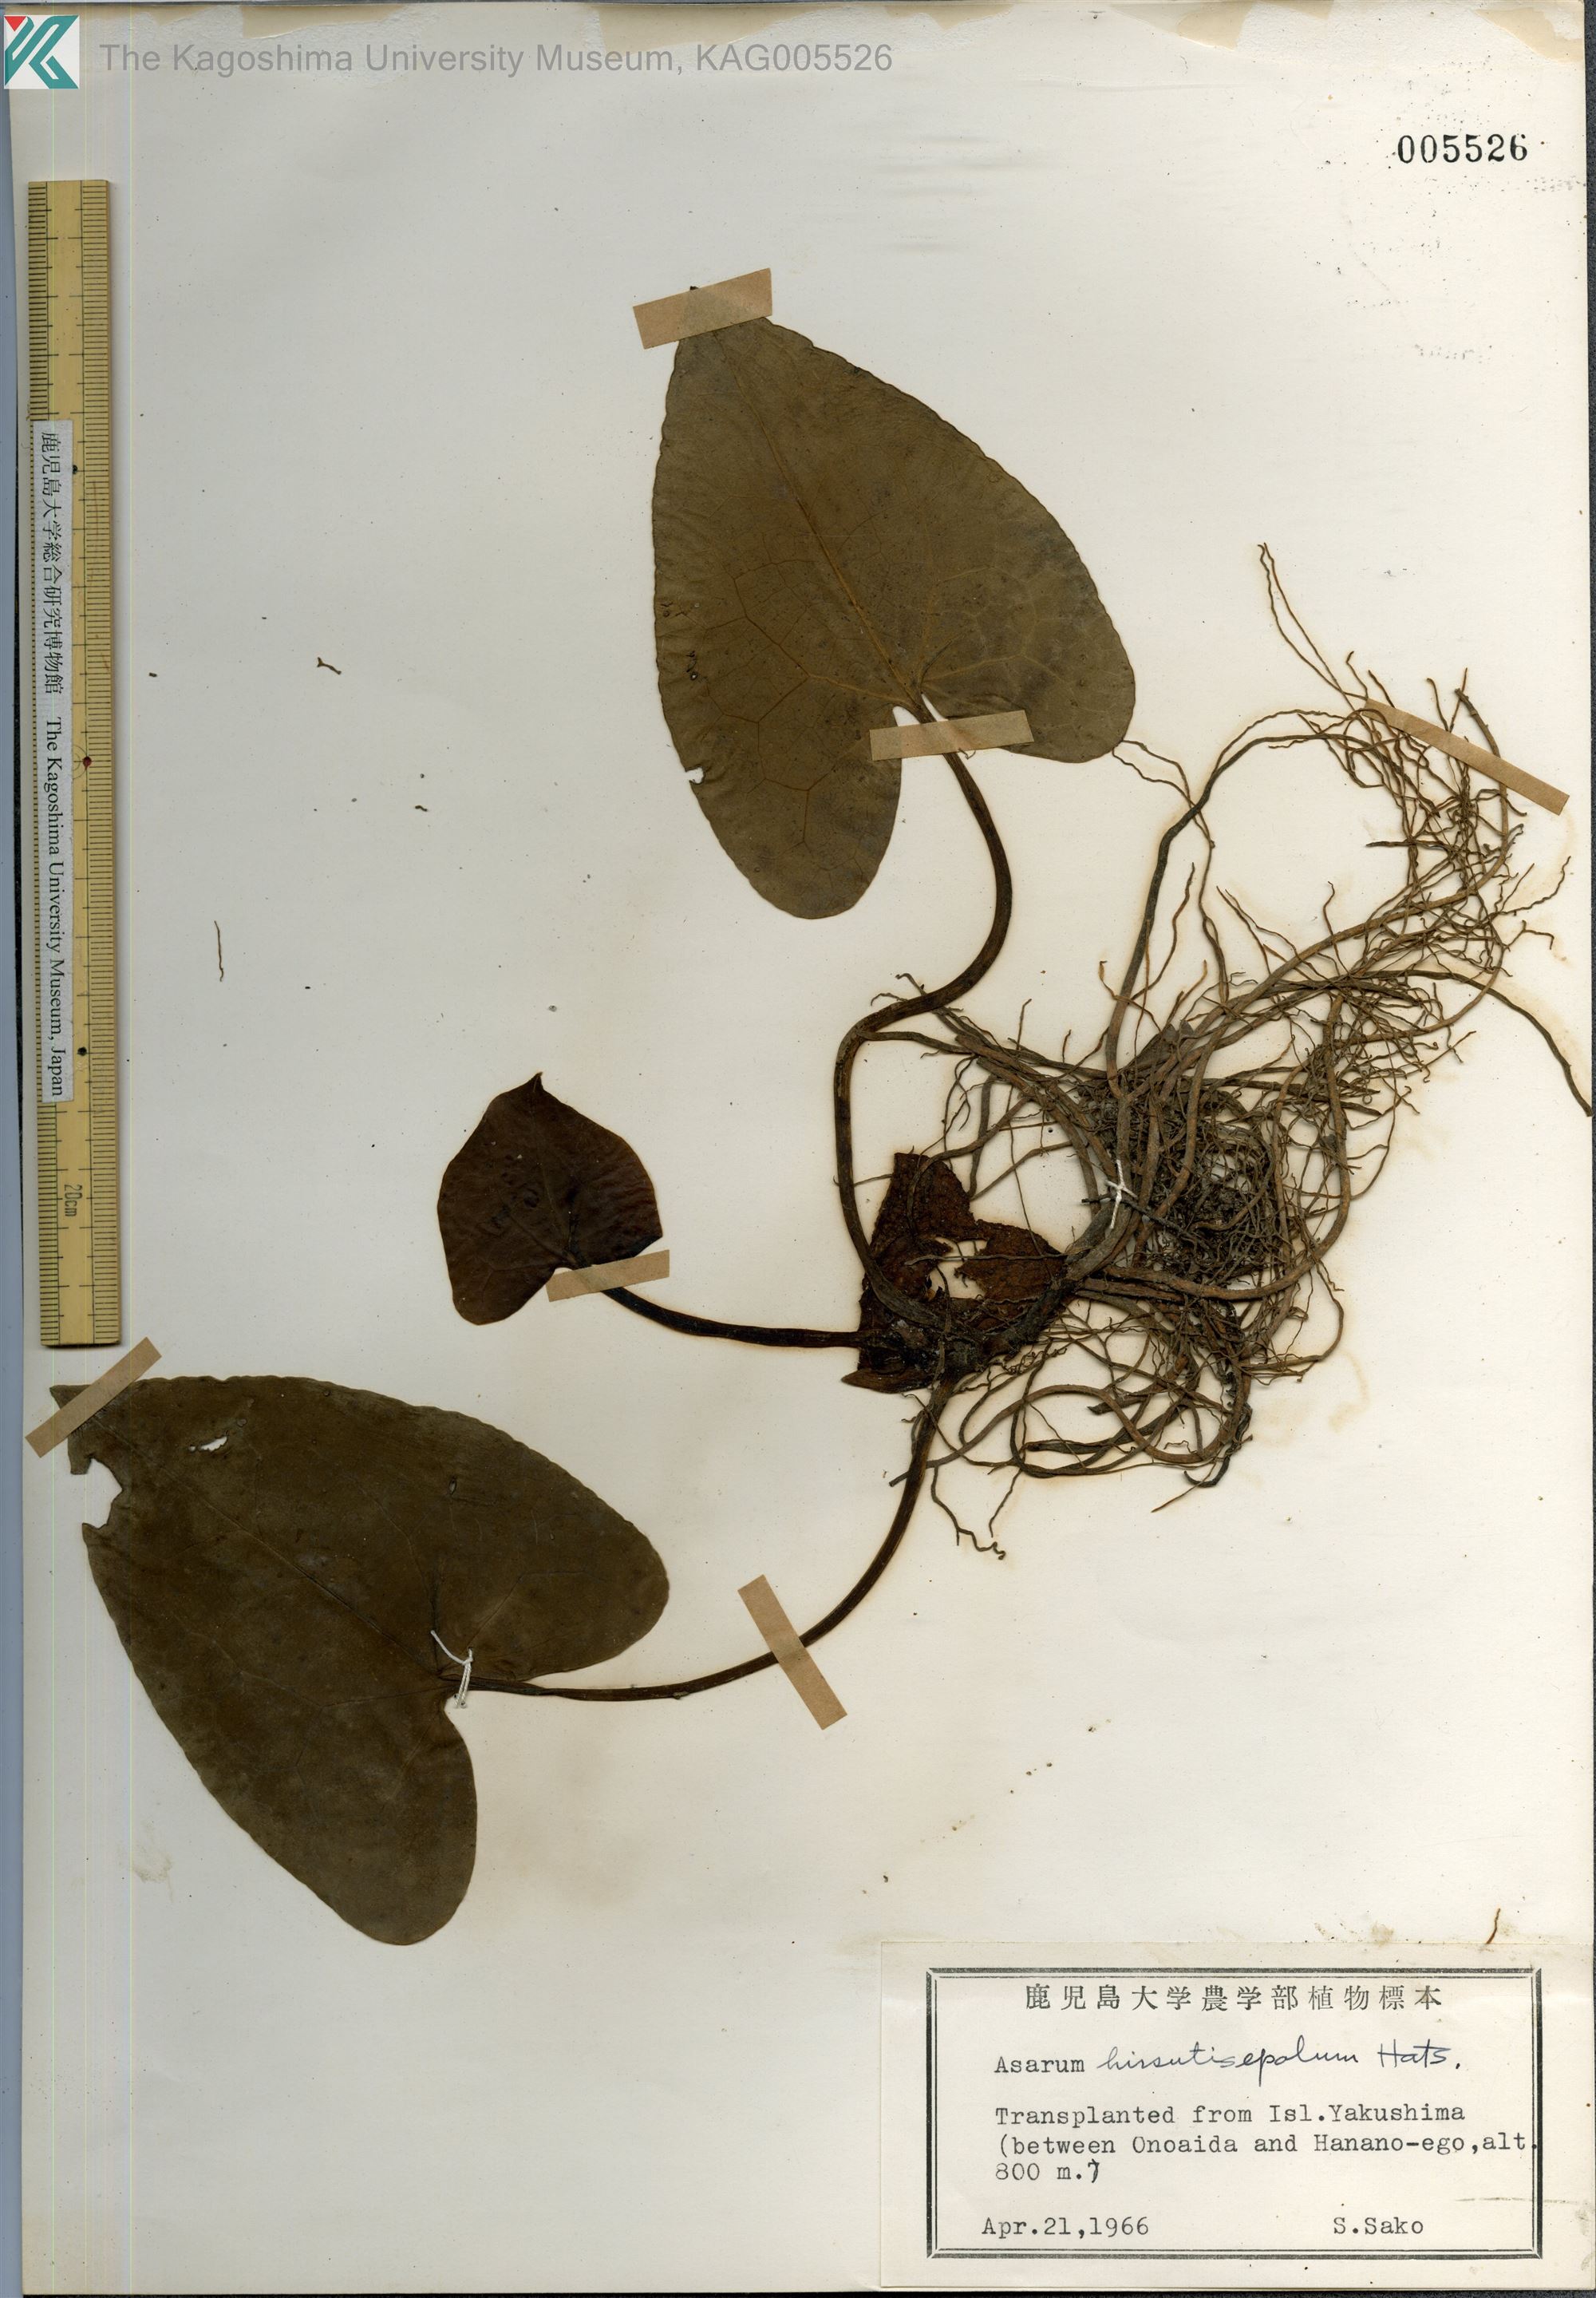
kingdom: Plantae
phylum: Tracheophyta
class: Magnoliopsida
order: Piperales
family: Aristolochiaceae
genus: Asarum
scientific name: Asarum yakusimense
